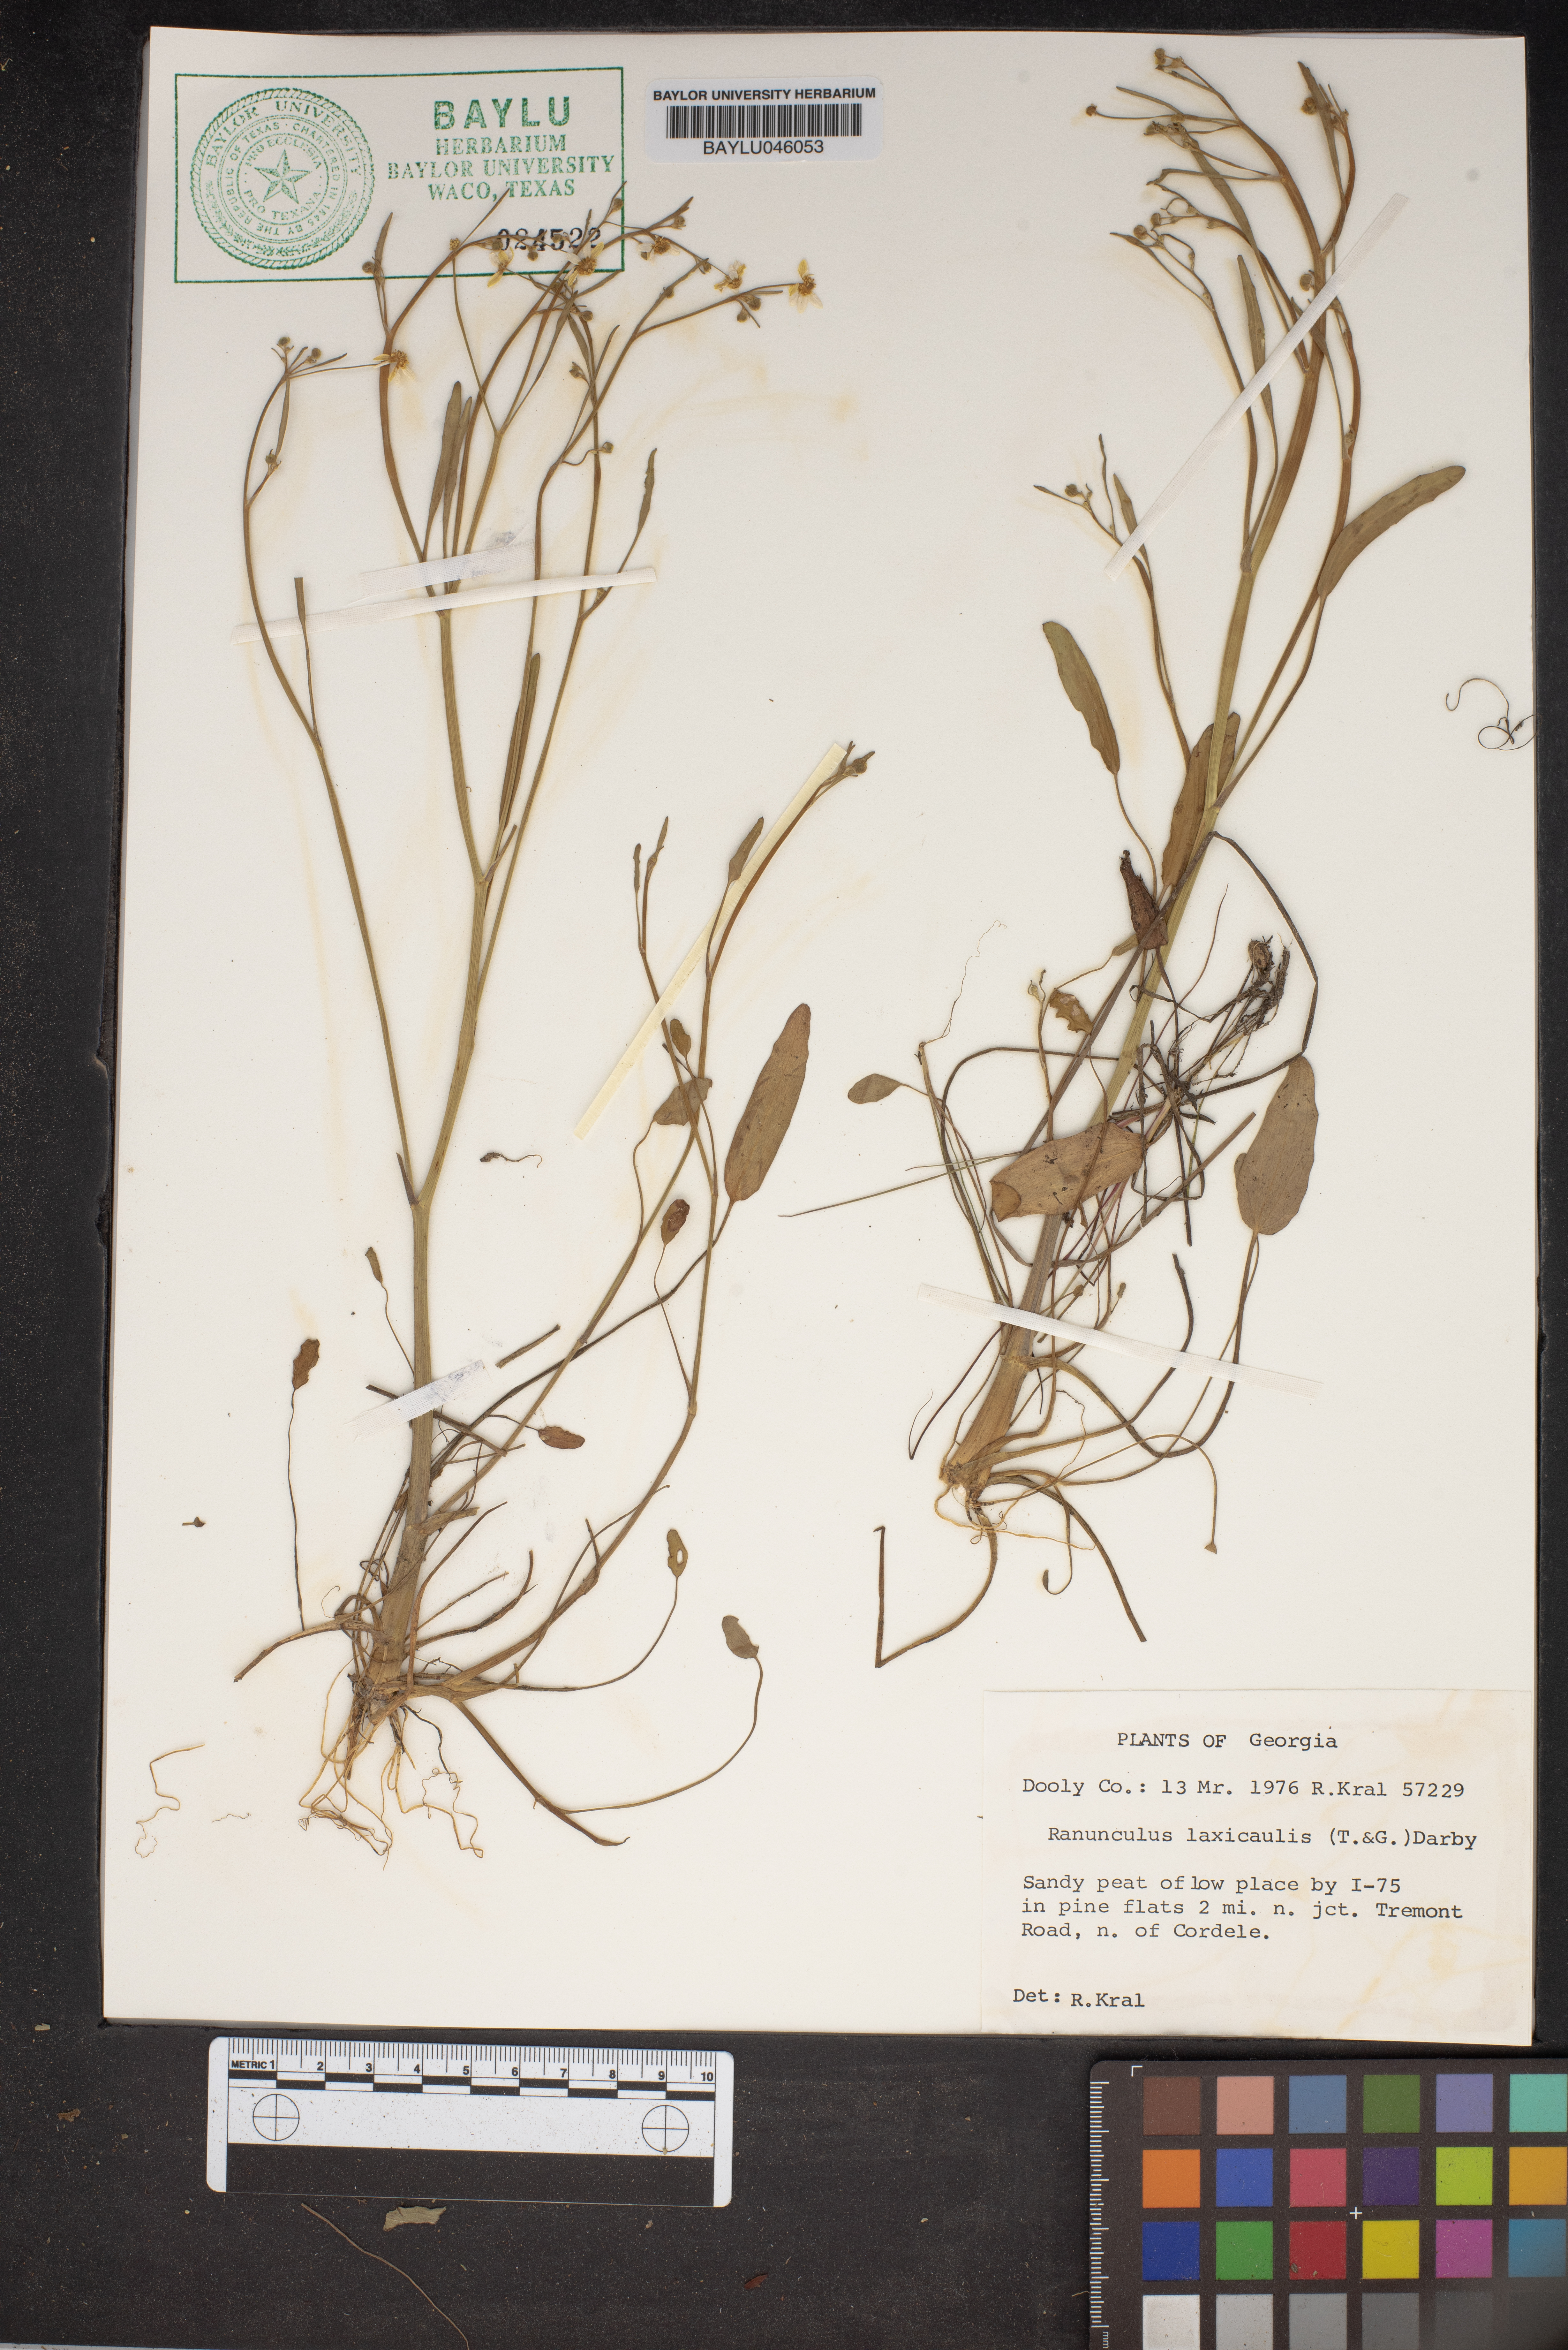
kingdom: Plantae
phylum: Tracheophyta
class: Magnoliopsida
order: Ranunculales
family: Ranunculaceae
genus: Ranunculus
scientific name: Ranunculus laxicaulis
